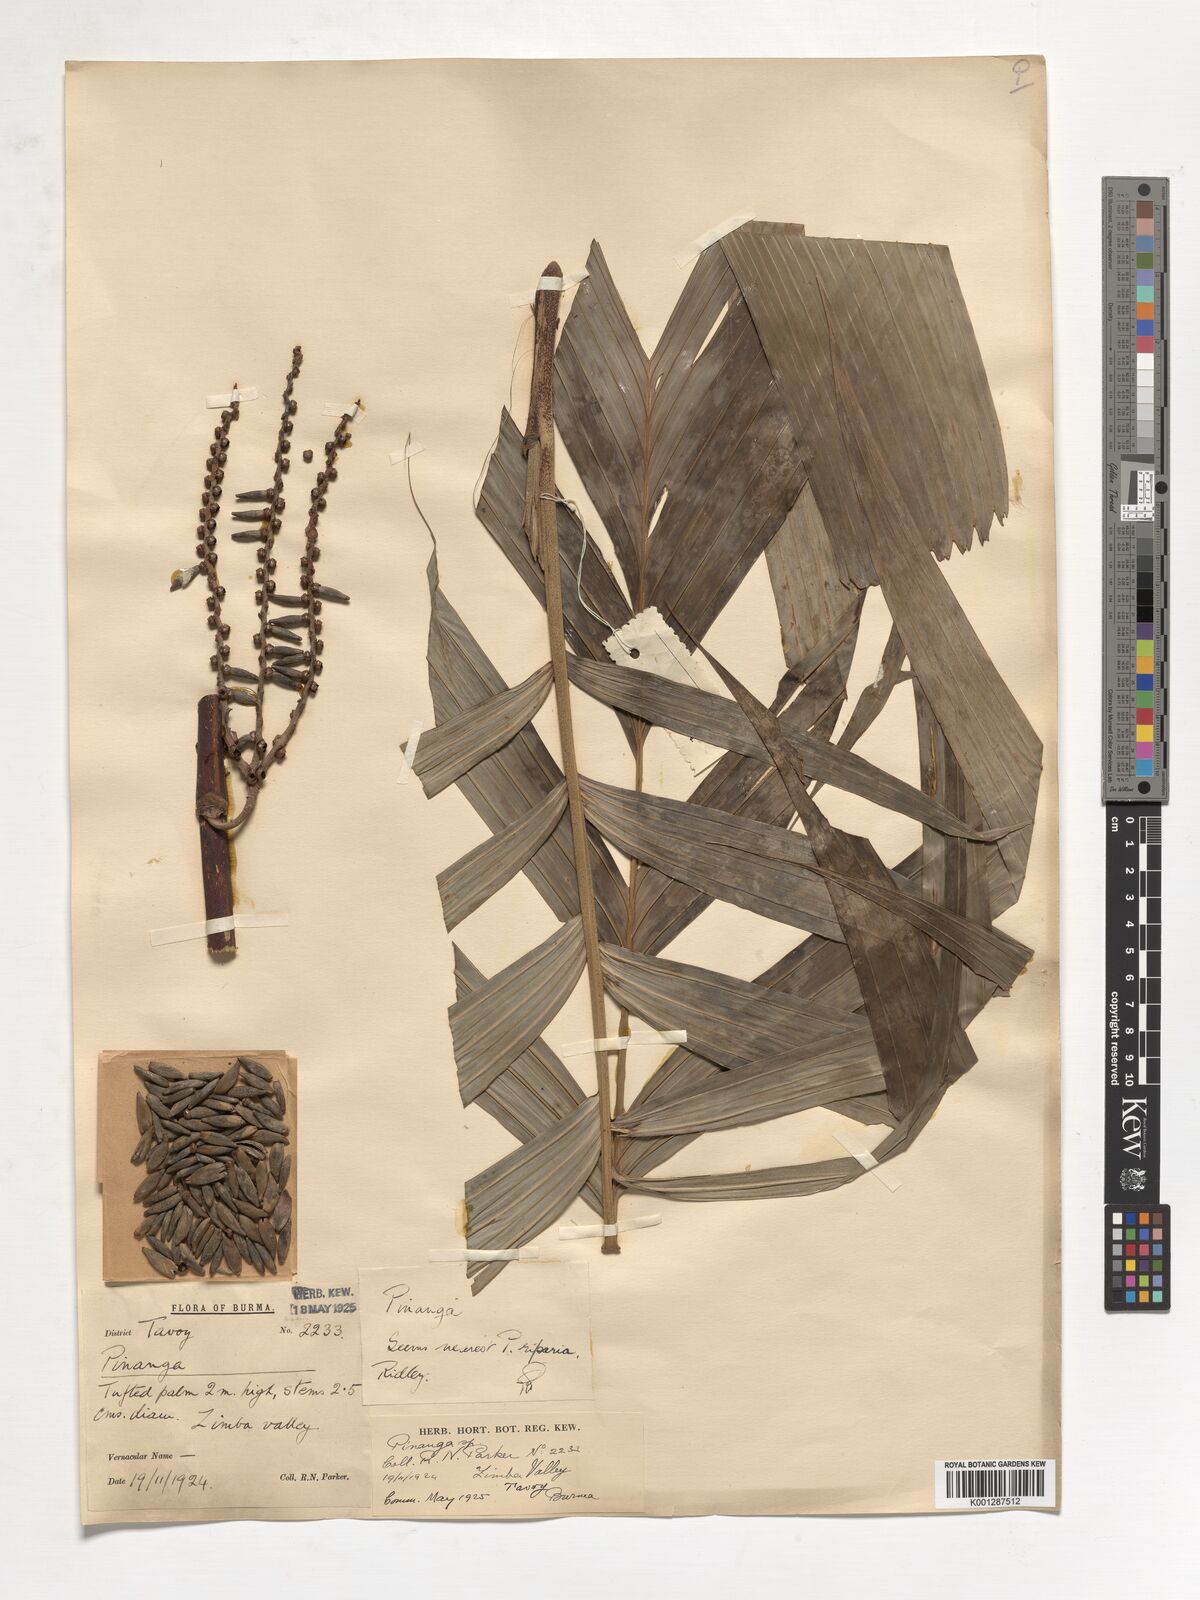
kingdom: Plantae
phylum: Tracheophyta
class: Liliopsida
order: Arecales
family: Arecaceae
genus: Pinanga
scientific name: Pinanga
